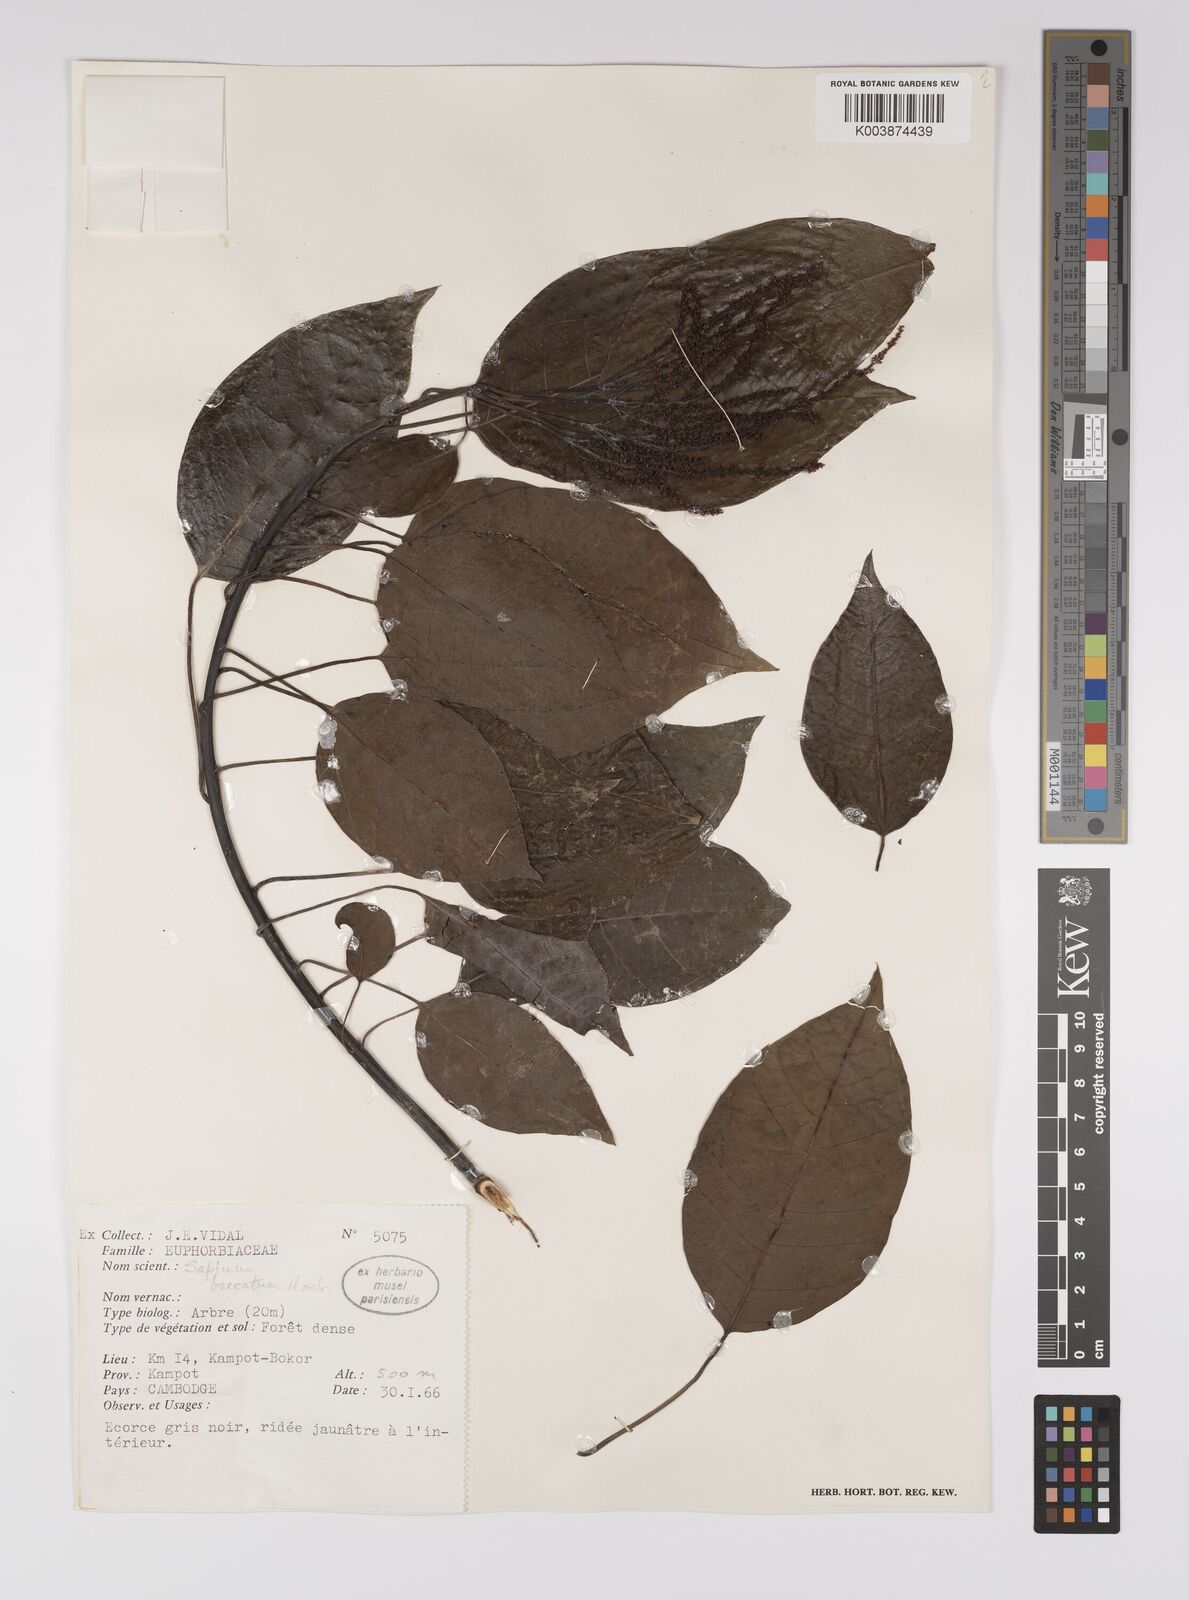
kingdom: Plantae
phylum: Tracheophyta
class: Magnoliopsida
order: Malpighiales
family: Euphorbiaceae
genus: Balakata
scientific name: Balakata baccata
